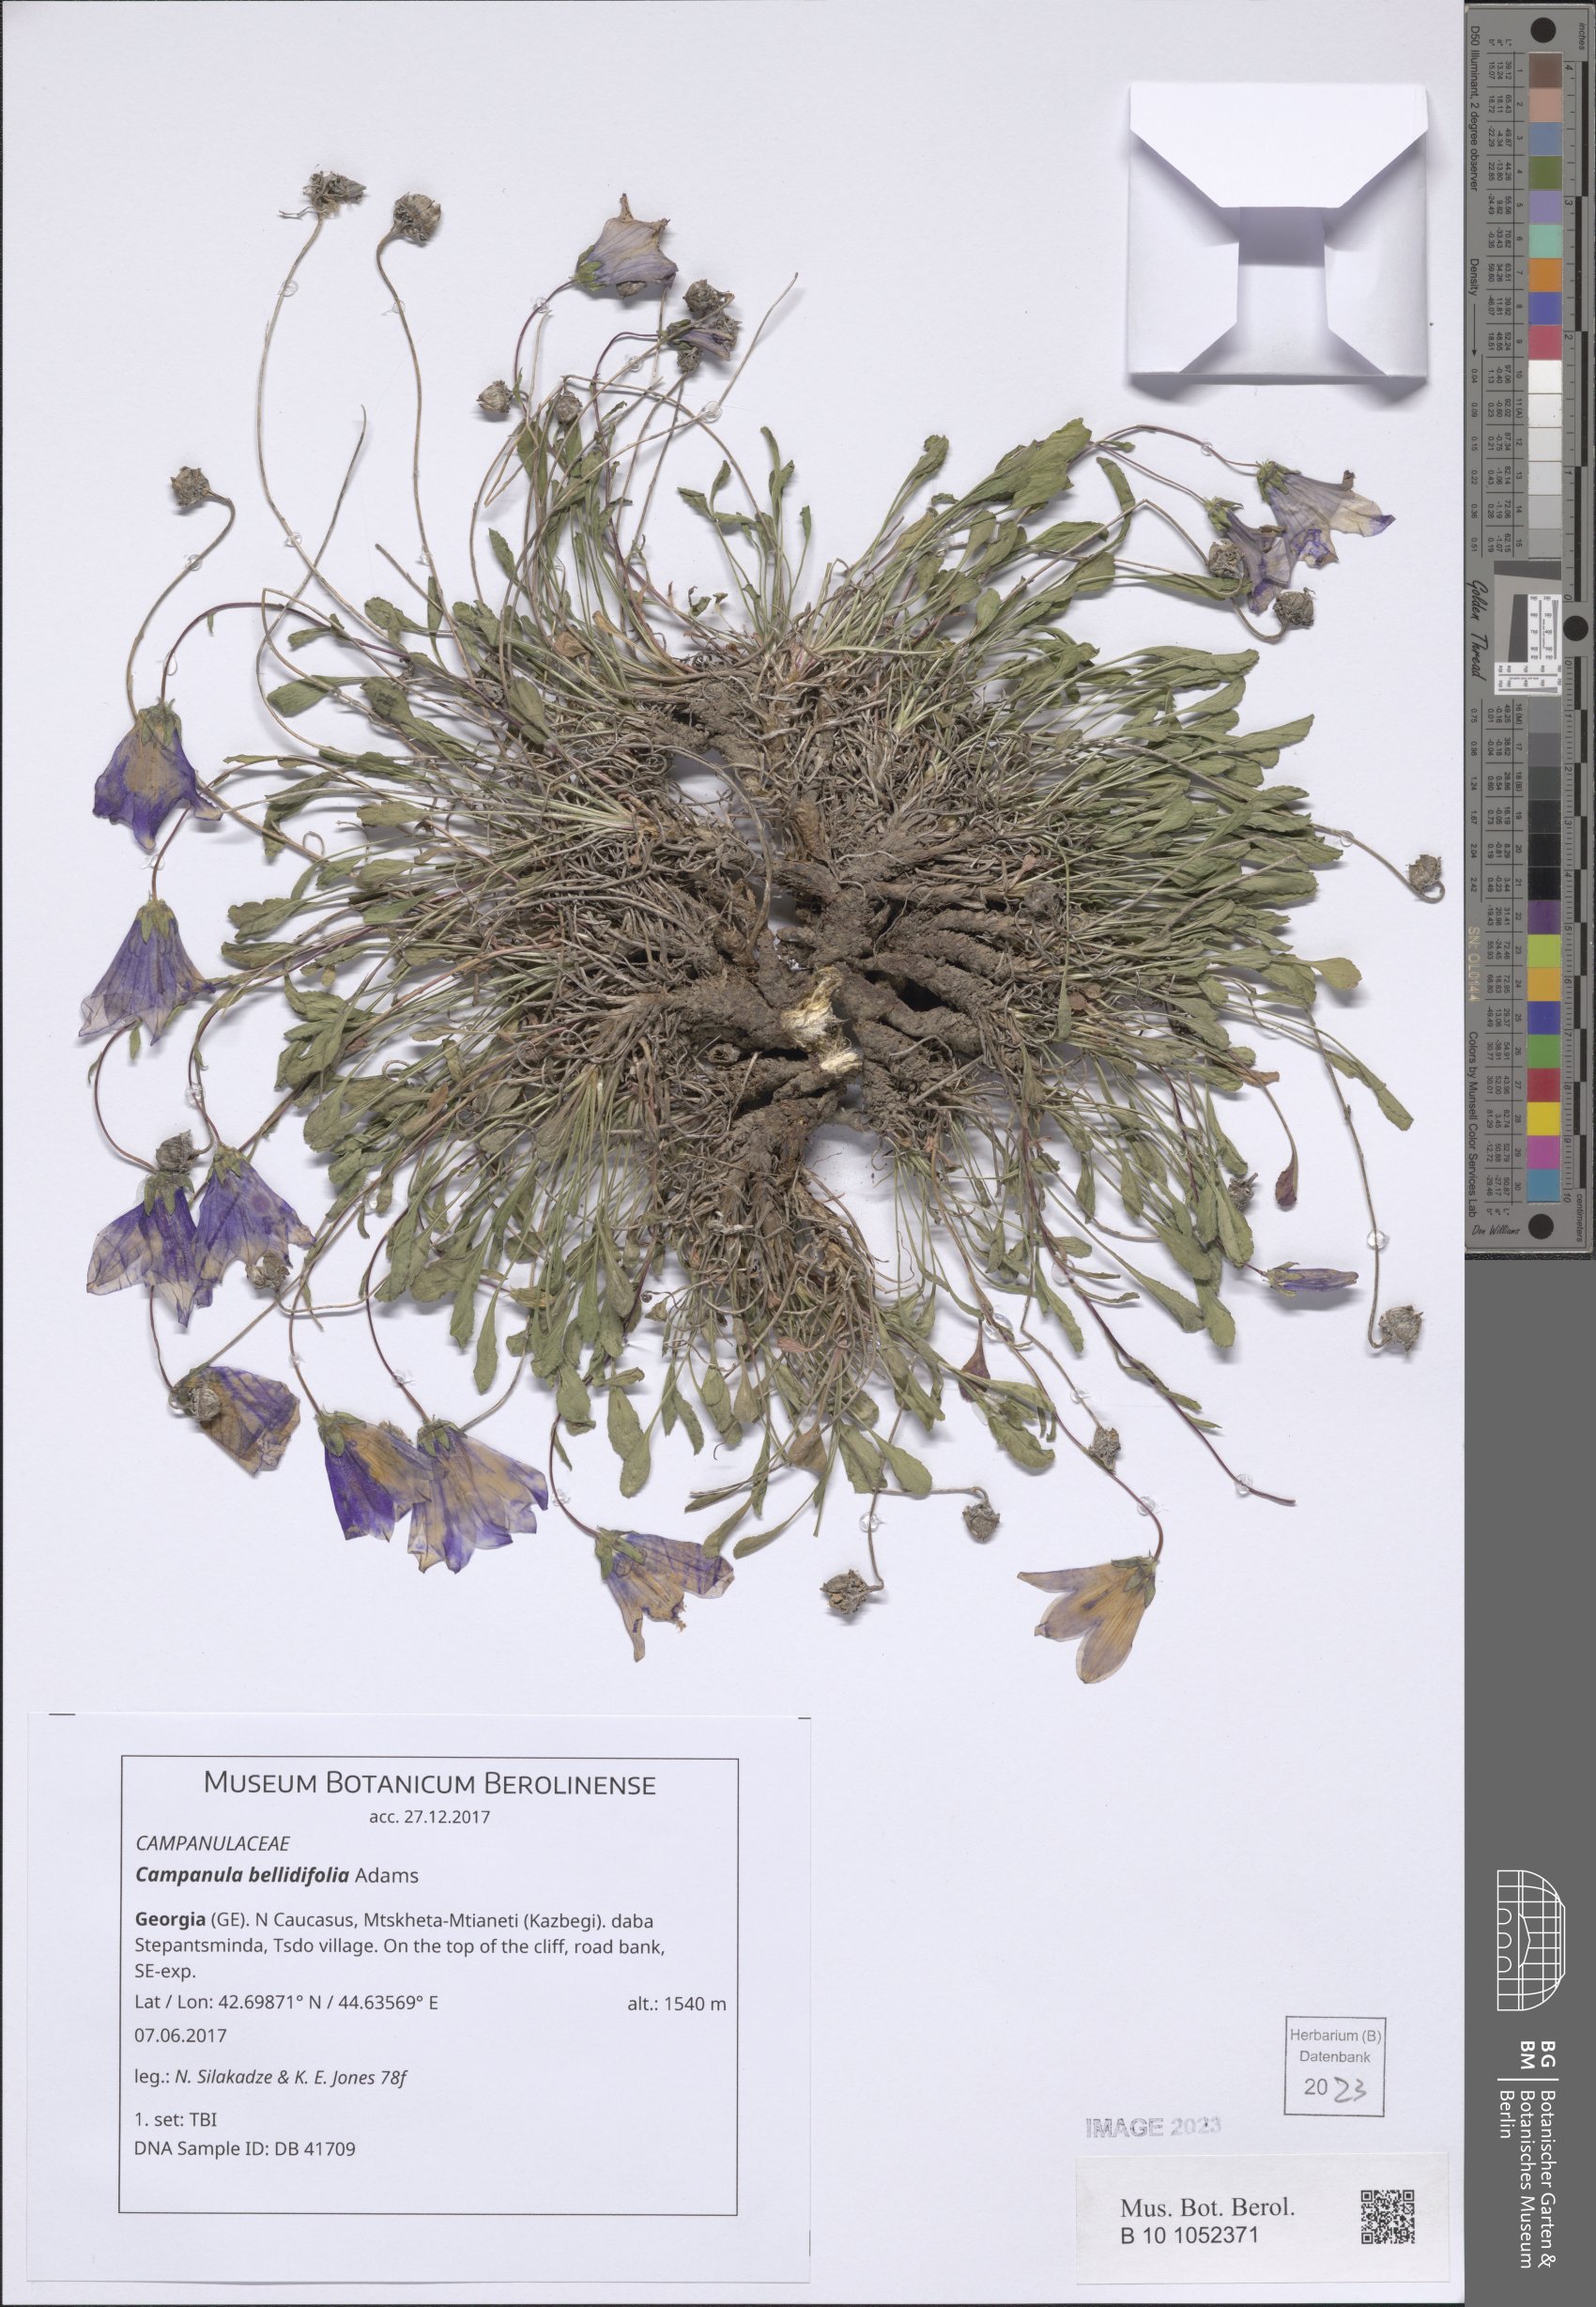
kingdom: Plantae
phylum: Tracheophyta
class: Magnoliopsida
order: Asterales
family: Campanulaceae
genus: Campanula
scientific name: Campanula bellidifolia
